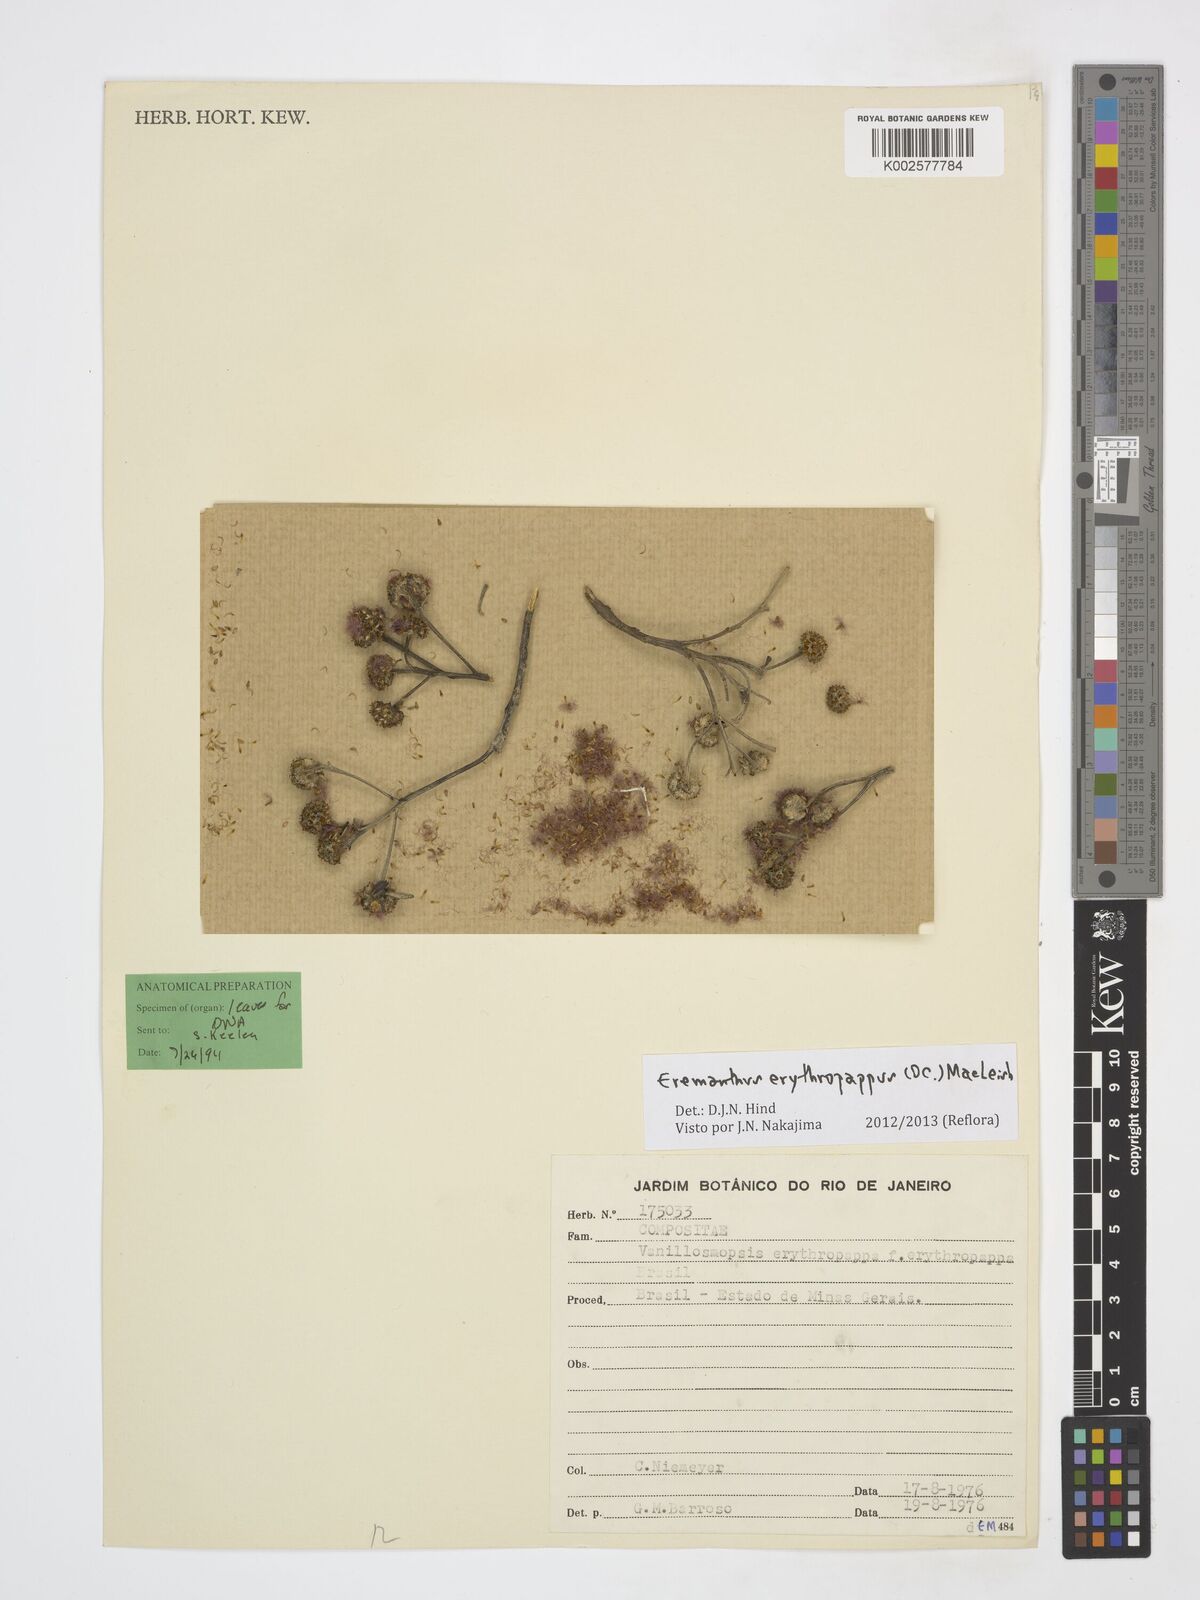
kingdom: Plantae
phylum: Tracheophyta
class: Magnoliopsida
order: Asterales
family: Asteraceae
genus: Eremanthus
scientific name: Eremanthus erythropappus
